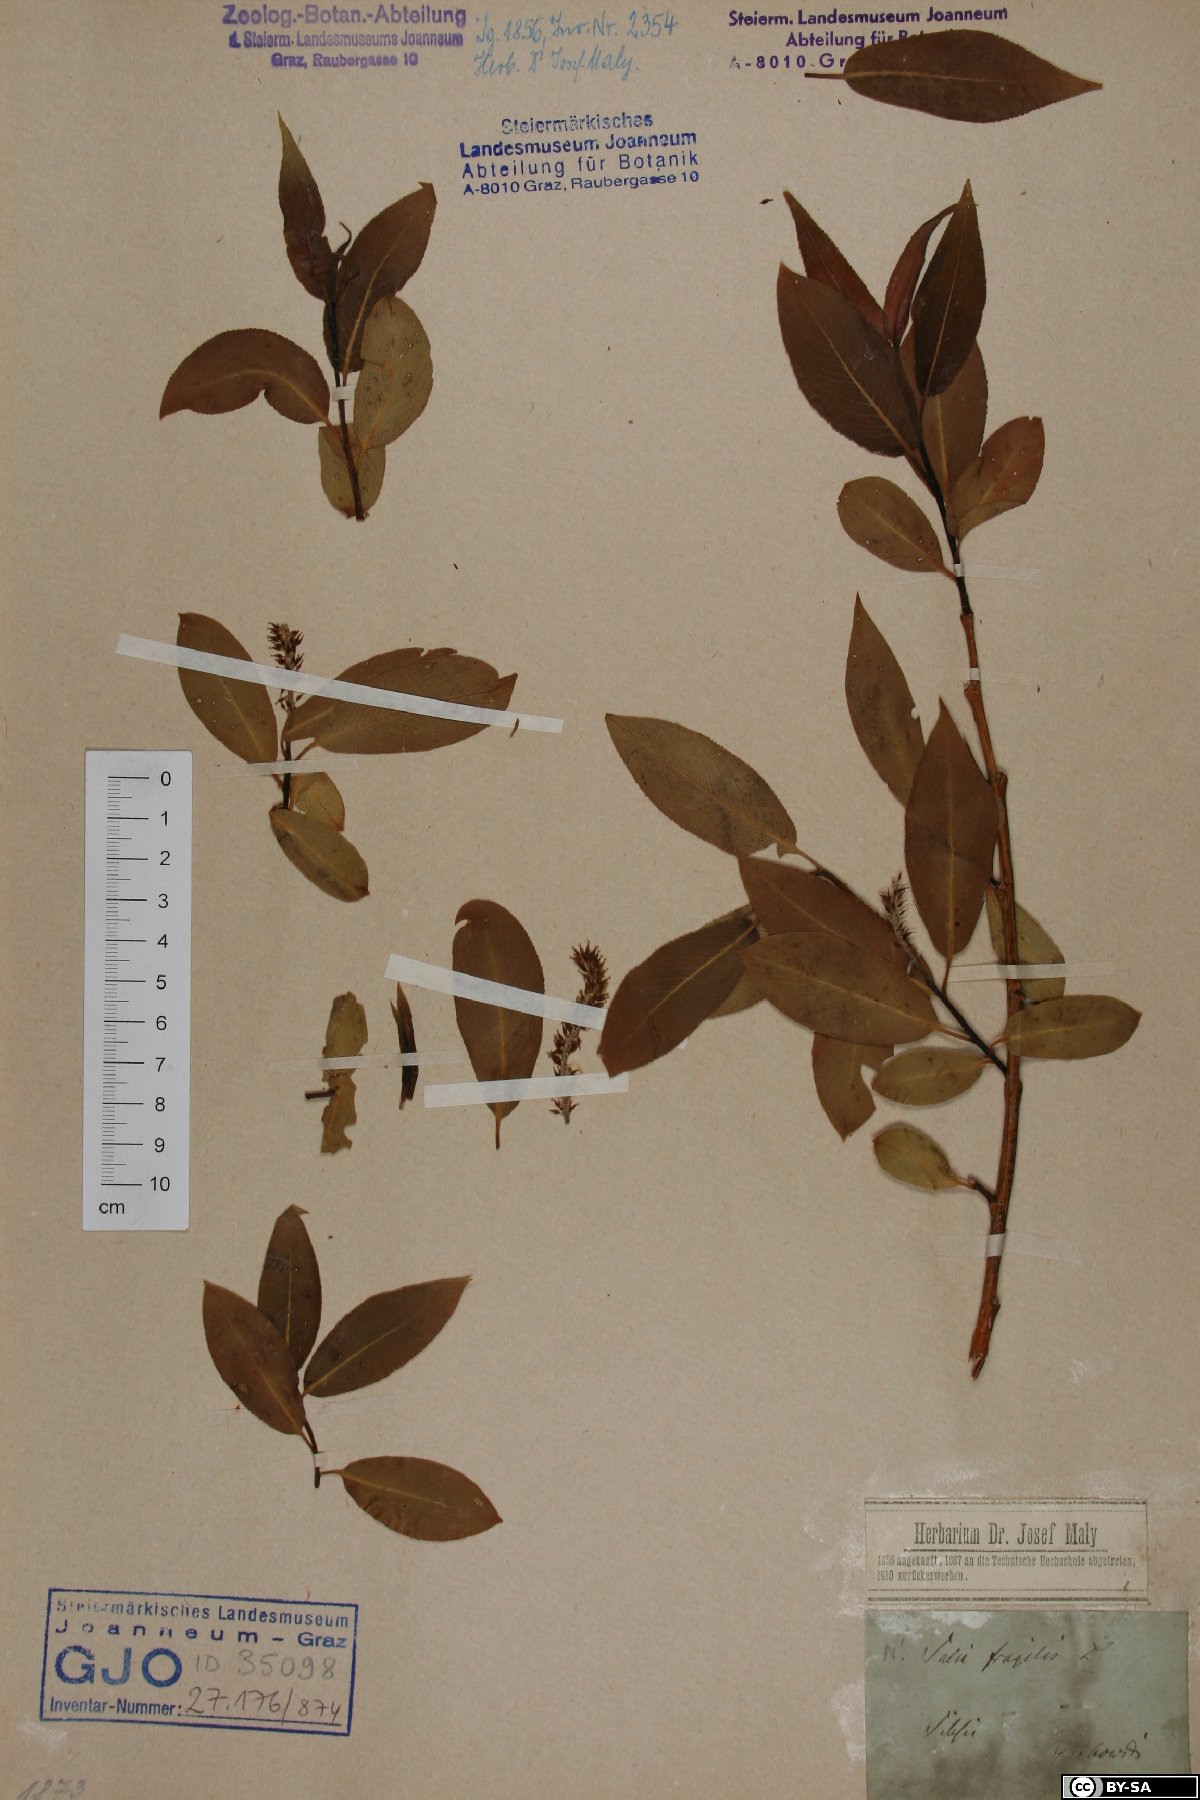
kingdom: Plantae
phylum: Tracheophyta
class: Magnoliopsida
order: Malpighiales
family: Salicaceae
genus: Salix
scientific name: Salix fragilis
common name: Crack willow
